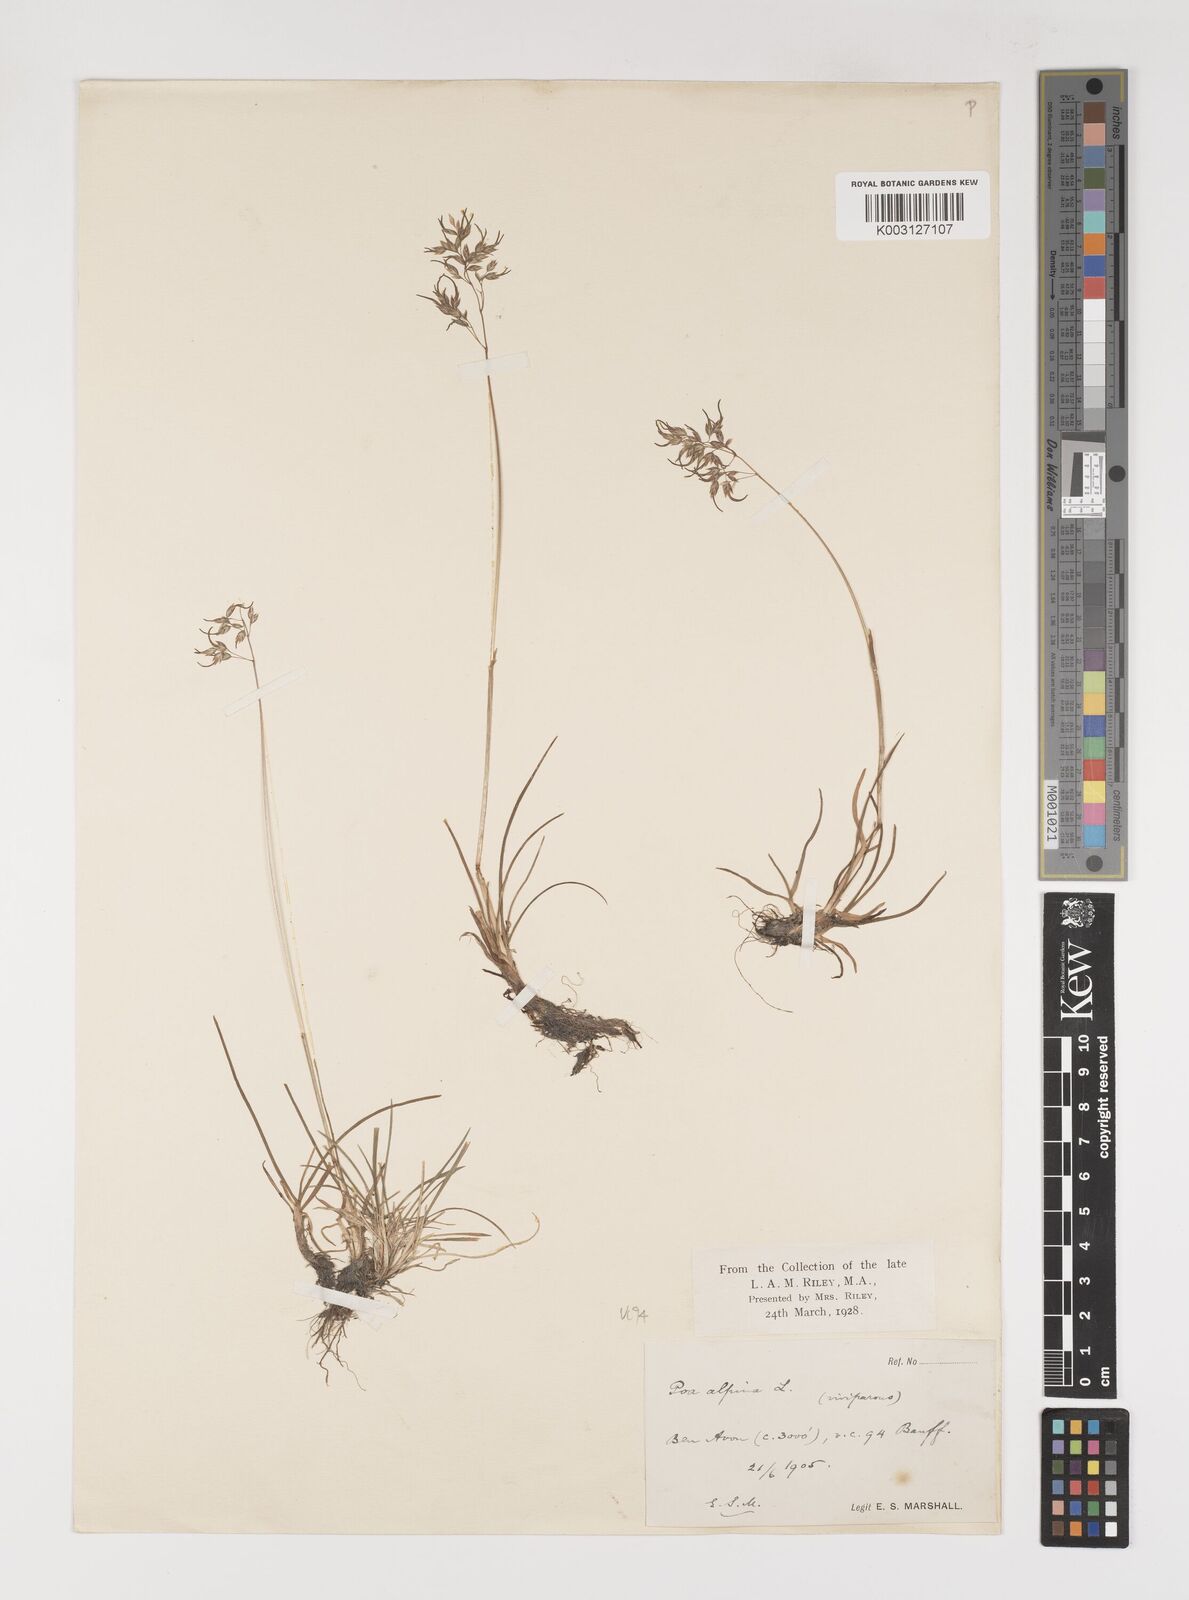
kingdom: Plantae
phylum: Tracheophyta
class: Liliopsida
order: Poales
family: Poaceae
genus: Poa
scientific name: Poa alpina
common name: Alpine bluegrass
